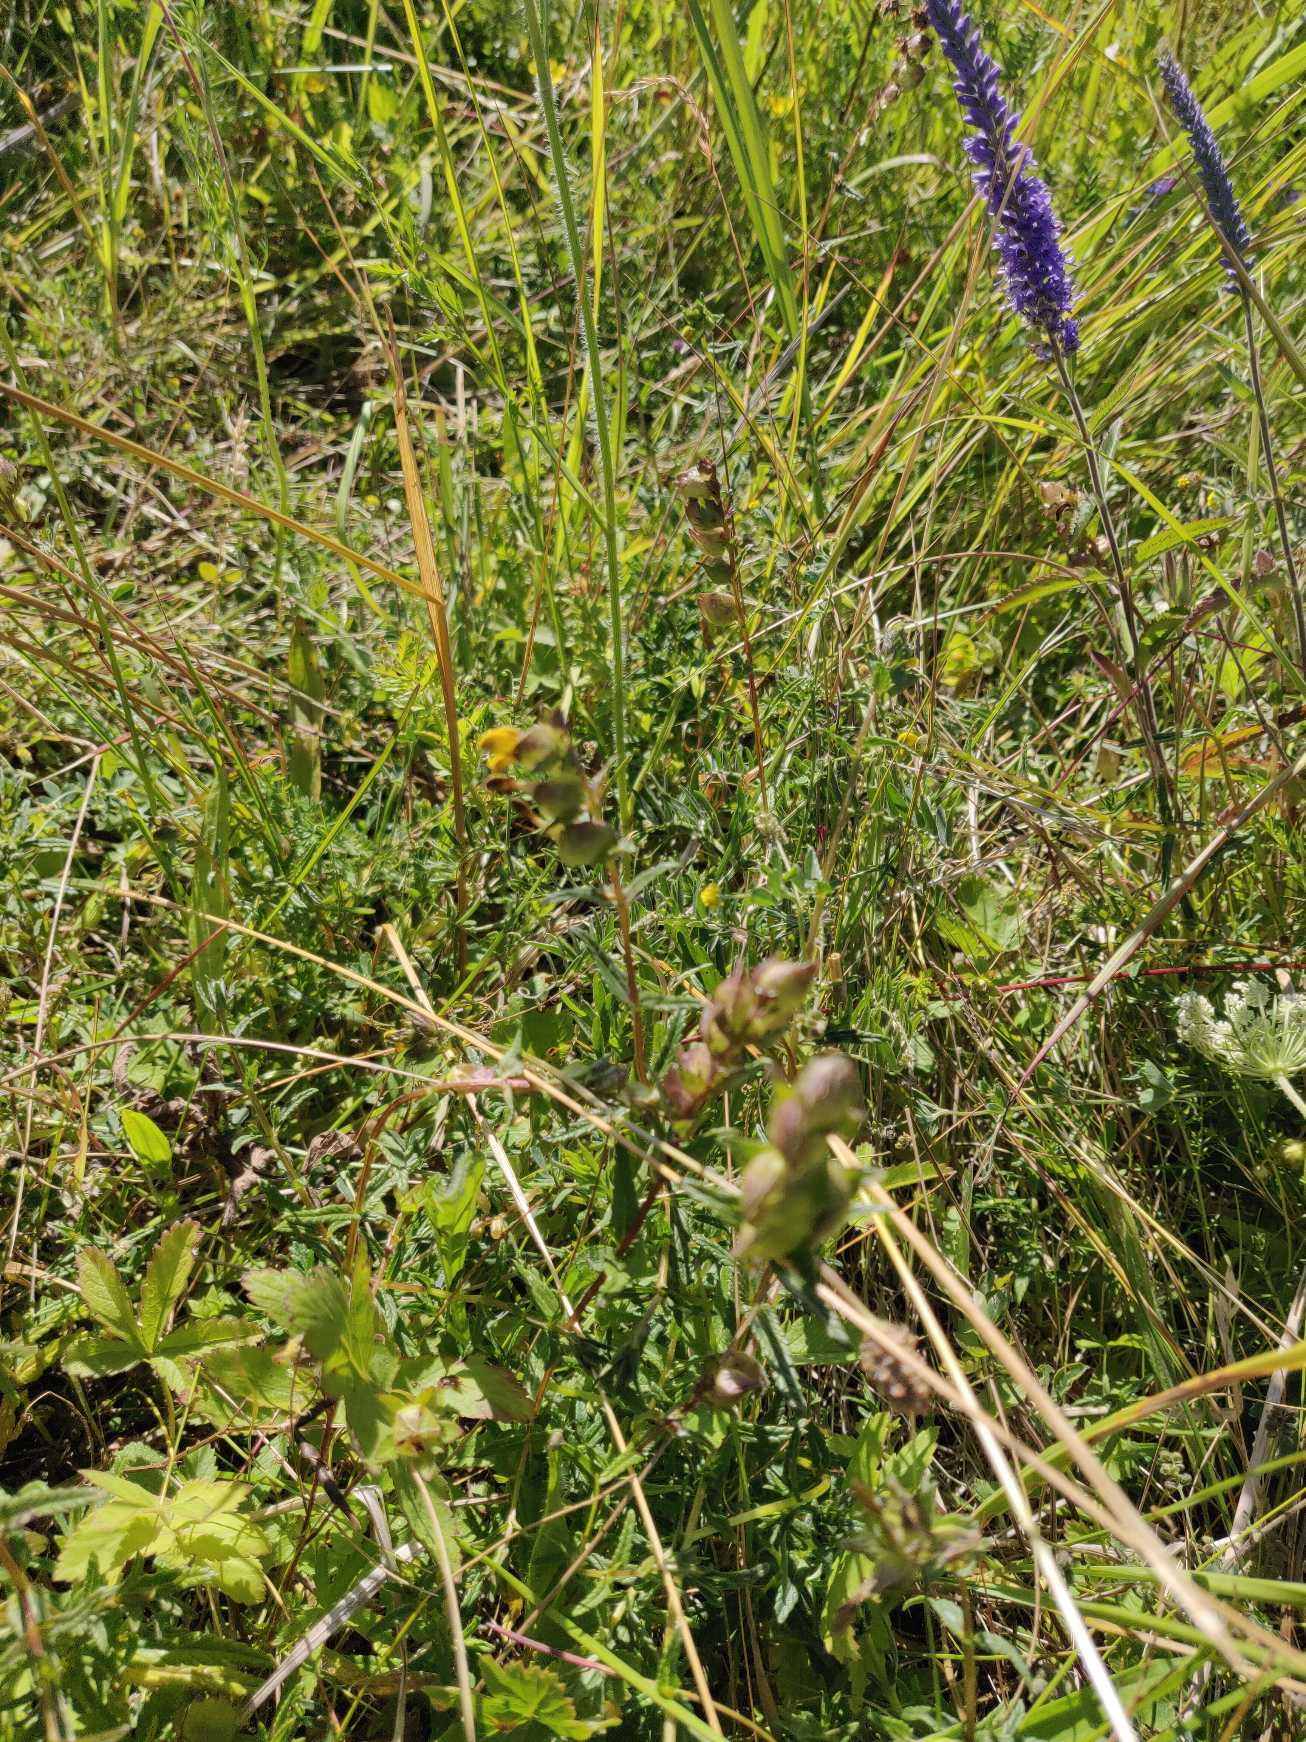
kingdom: Plantae
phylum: Tracheophyta
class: Magnoliopsida
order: Lamiales
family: Orobanchaceae
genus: Rhinanthus
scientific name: Rhinanthus minor
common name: Liden skjaller
